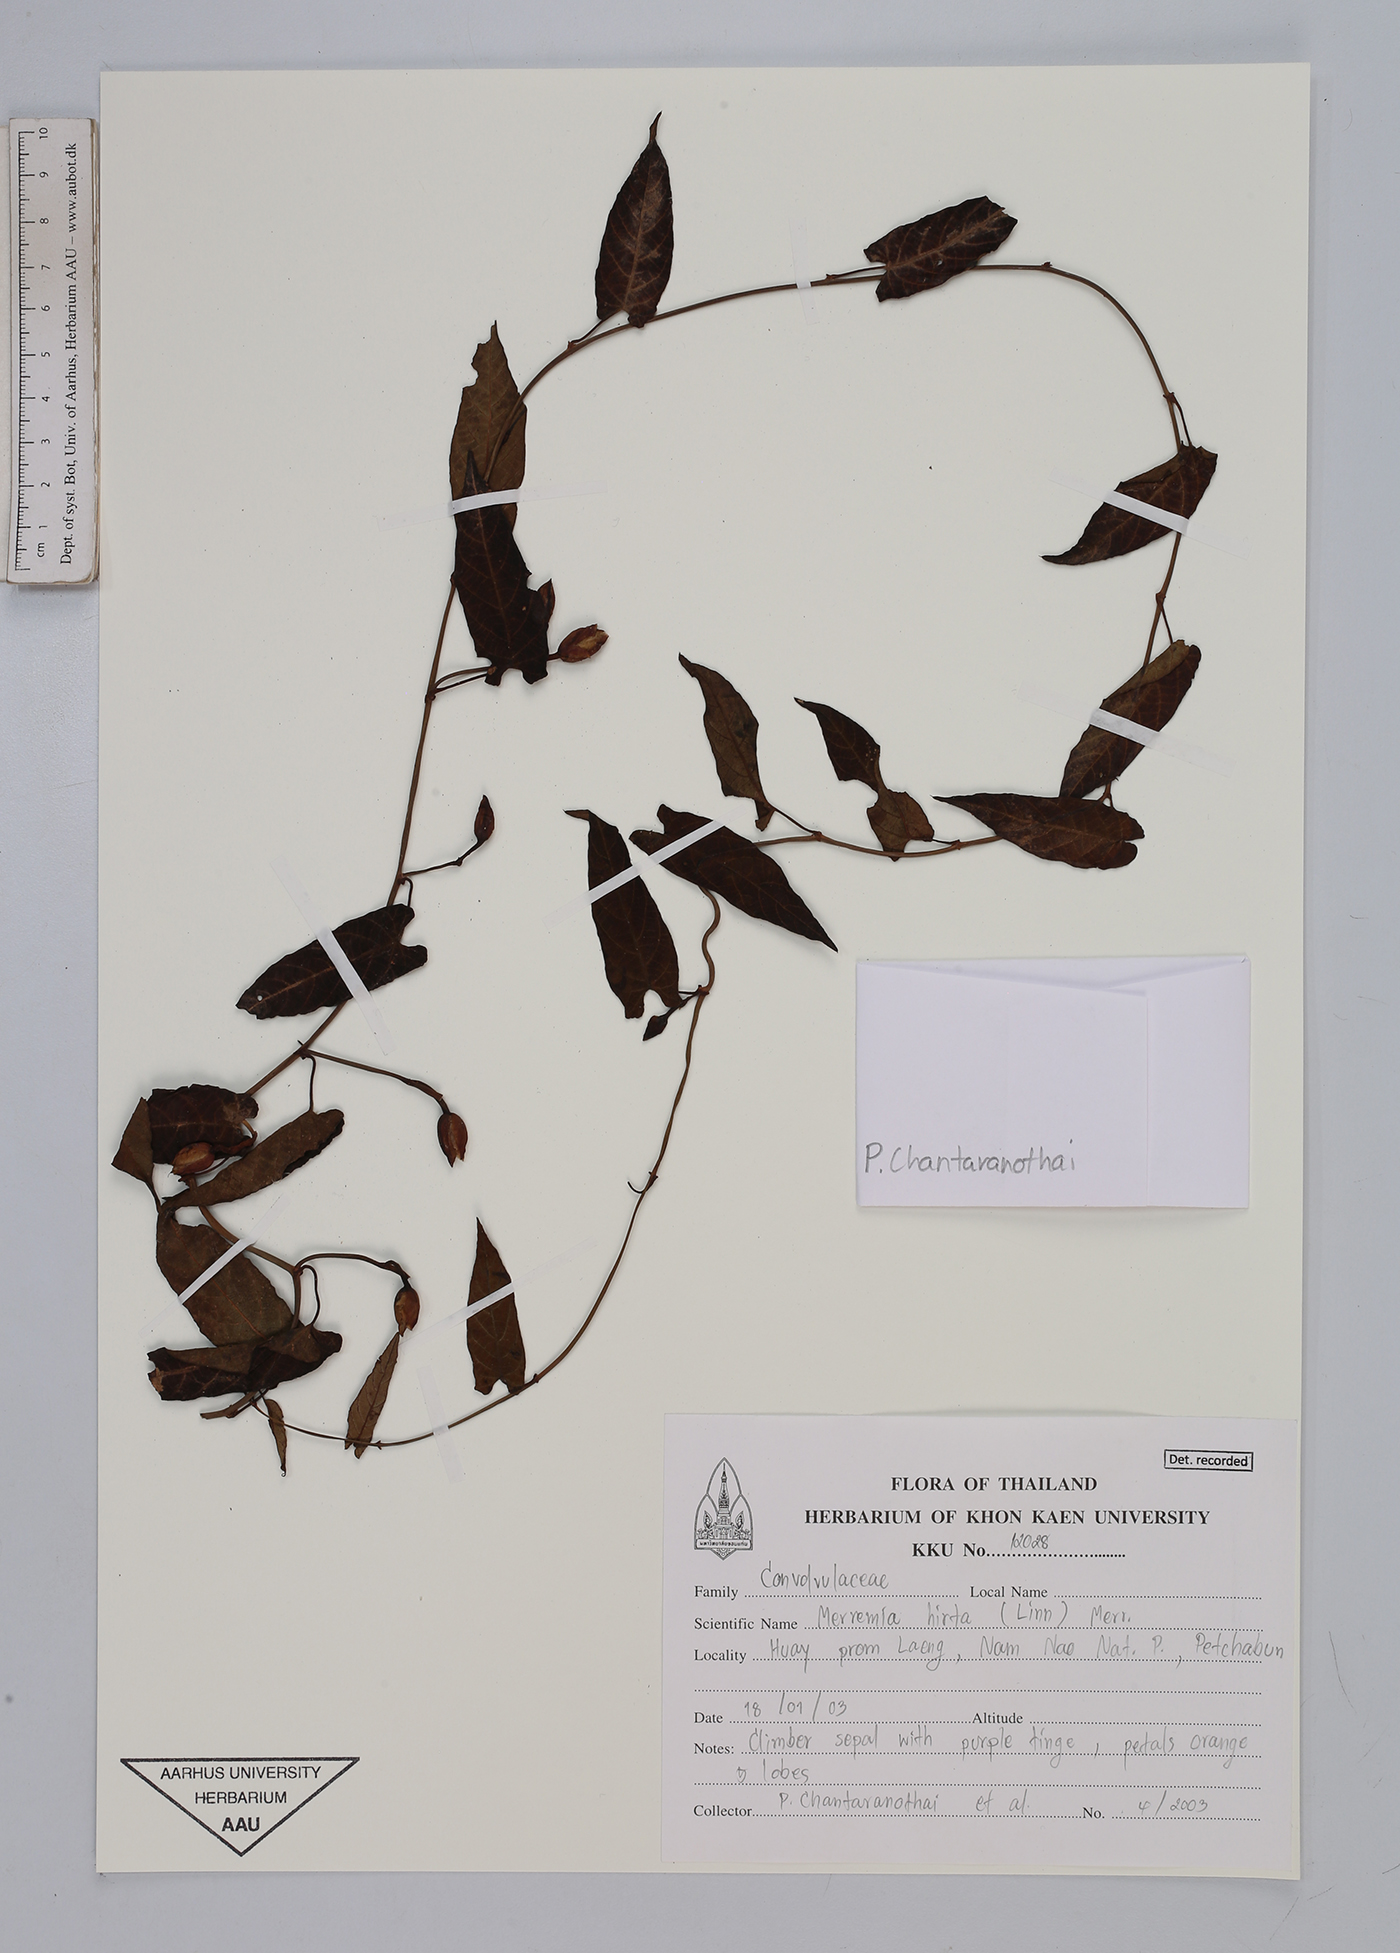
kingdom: Plantae
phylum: Tracheophyta
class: Magnoliopsida
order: Solanales
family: Convolvulaceae
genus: Merremia
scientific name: Merremia hirta
